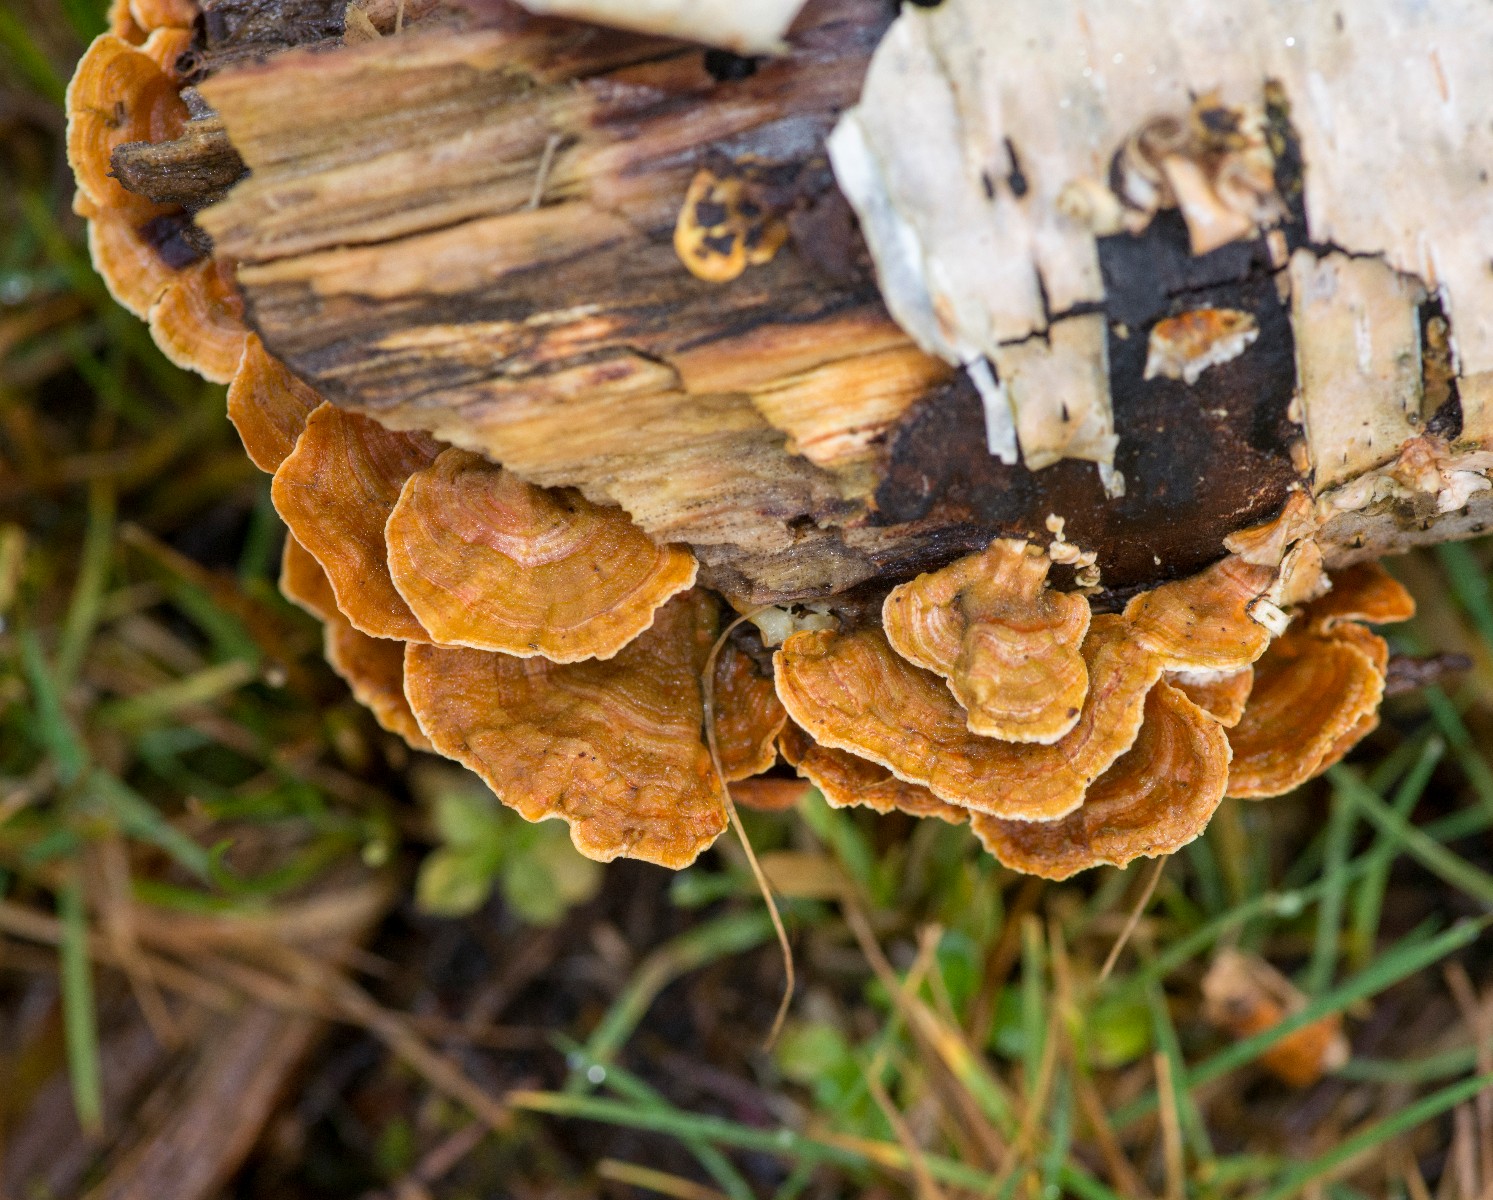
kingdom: Fungi
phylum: Basidiomycota
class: Agaricomycetes
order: Russulales
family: Stereaceae
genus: Stereum
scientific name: Stereum hirsutum
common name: håret lædersvamp
